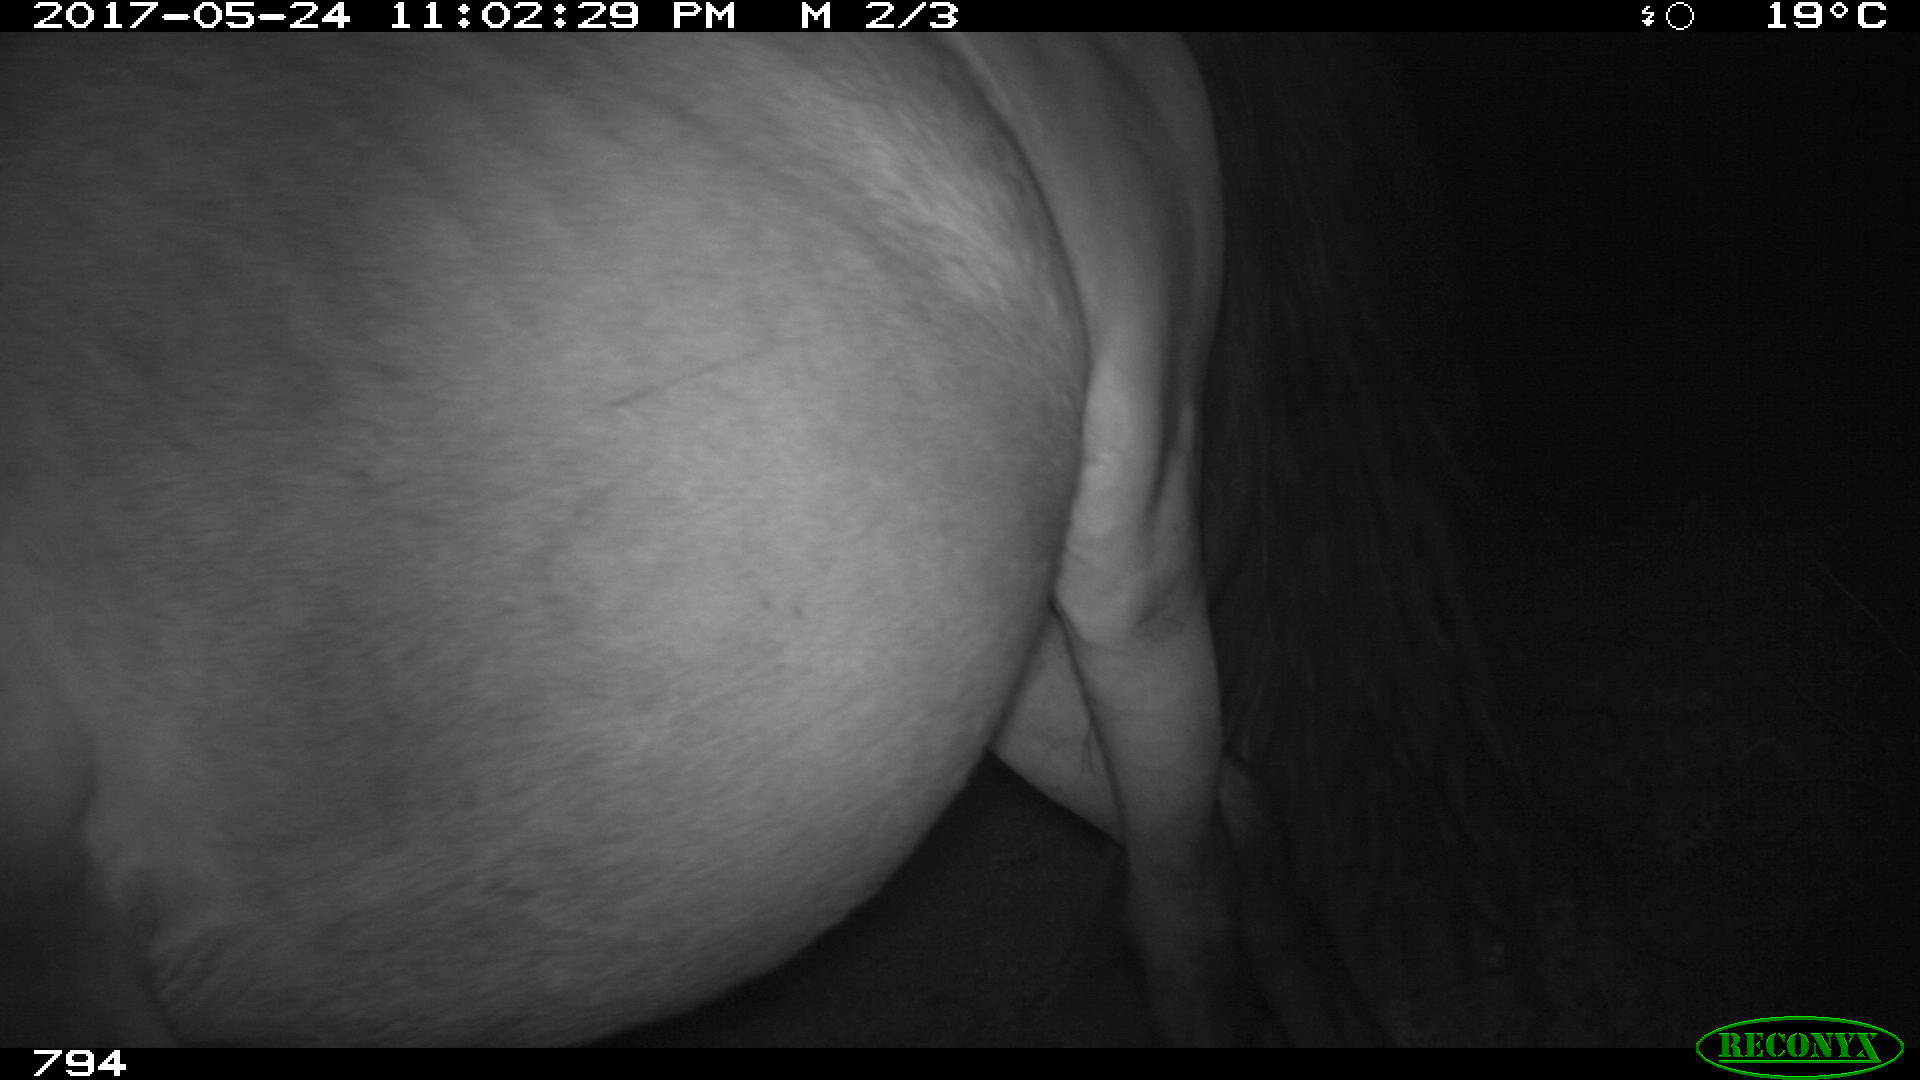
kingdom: Animalia
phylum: Chordata
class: Mammalia
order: Perissodactyla
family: Equidae
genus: Equus
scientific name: Equus caballus
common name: Horse
